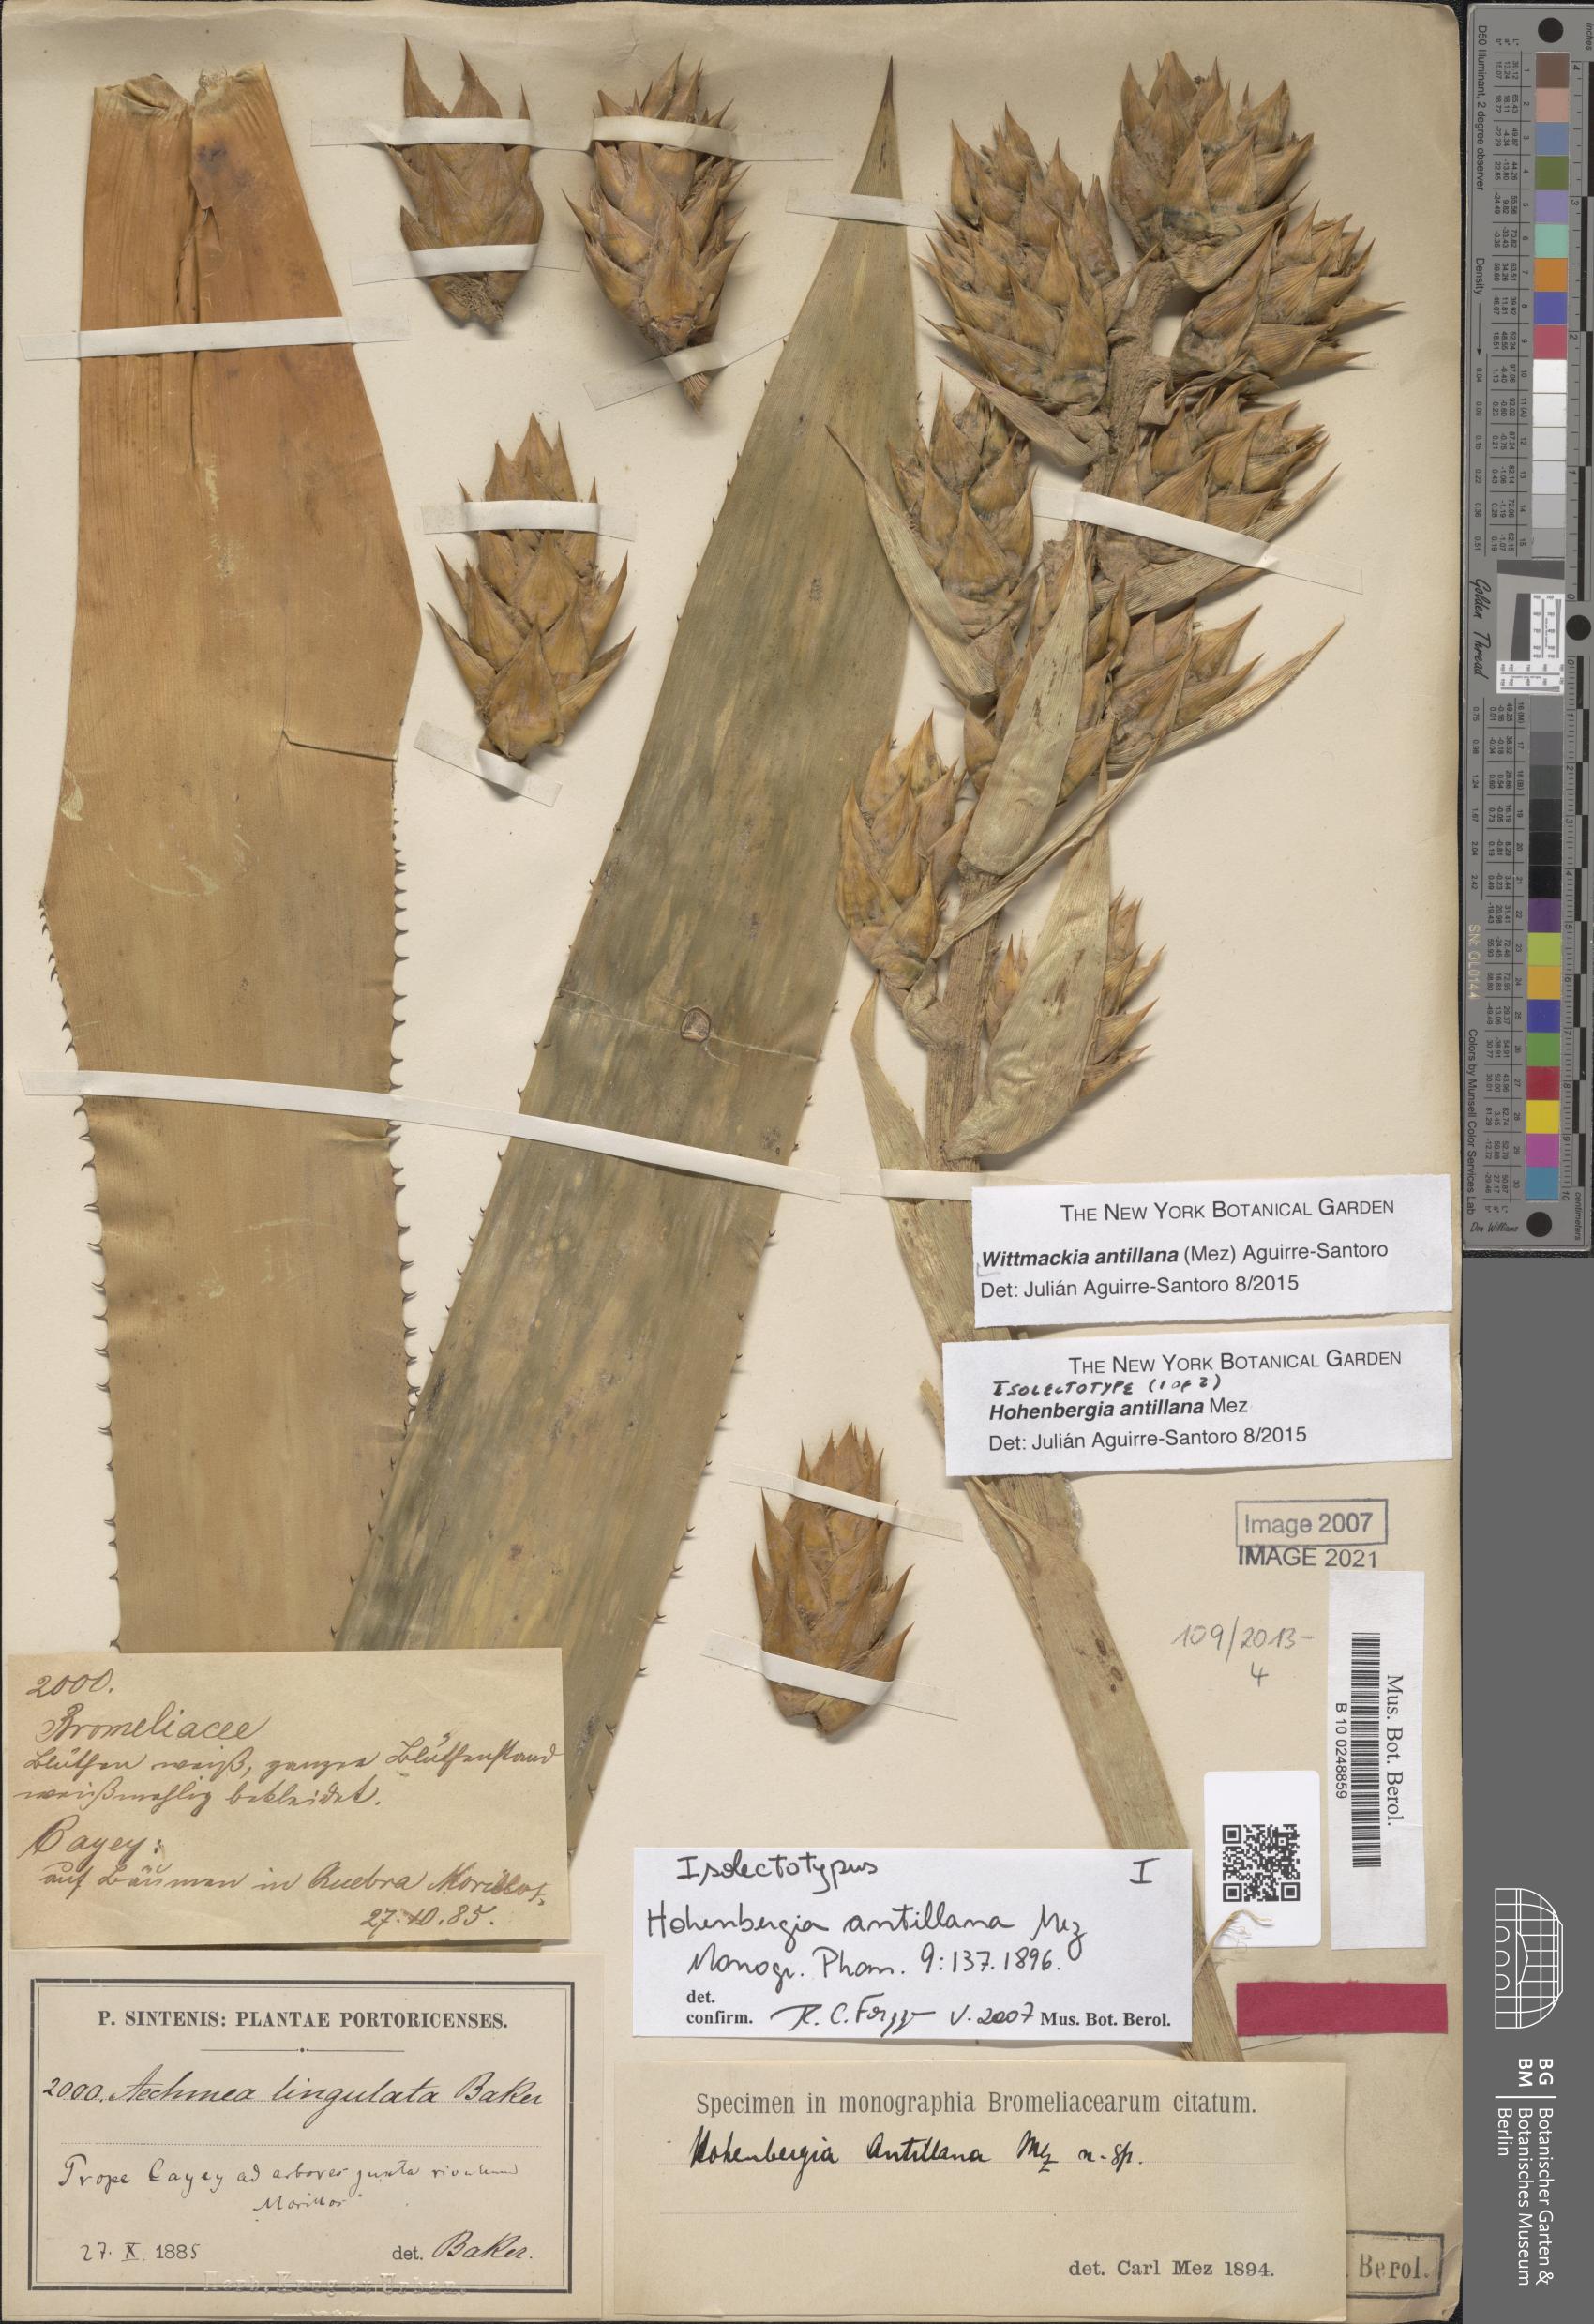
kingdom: Plantae
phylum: Tracheophyta
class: Liliopsida
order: Poales
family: Bromeliaceae
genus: Wittmackia
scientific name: Wittmackia antillana
